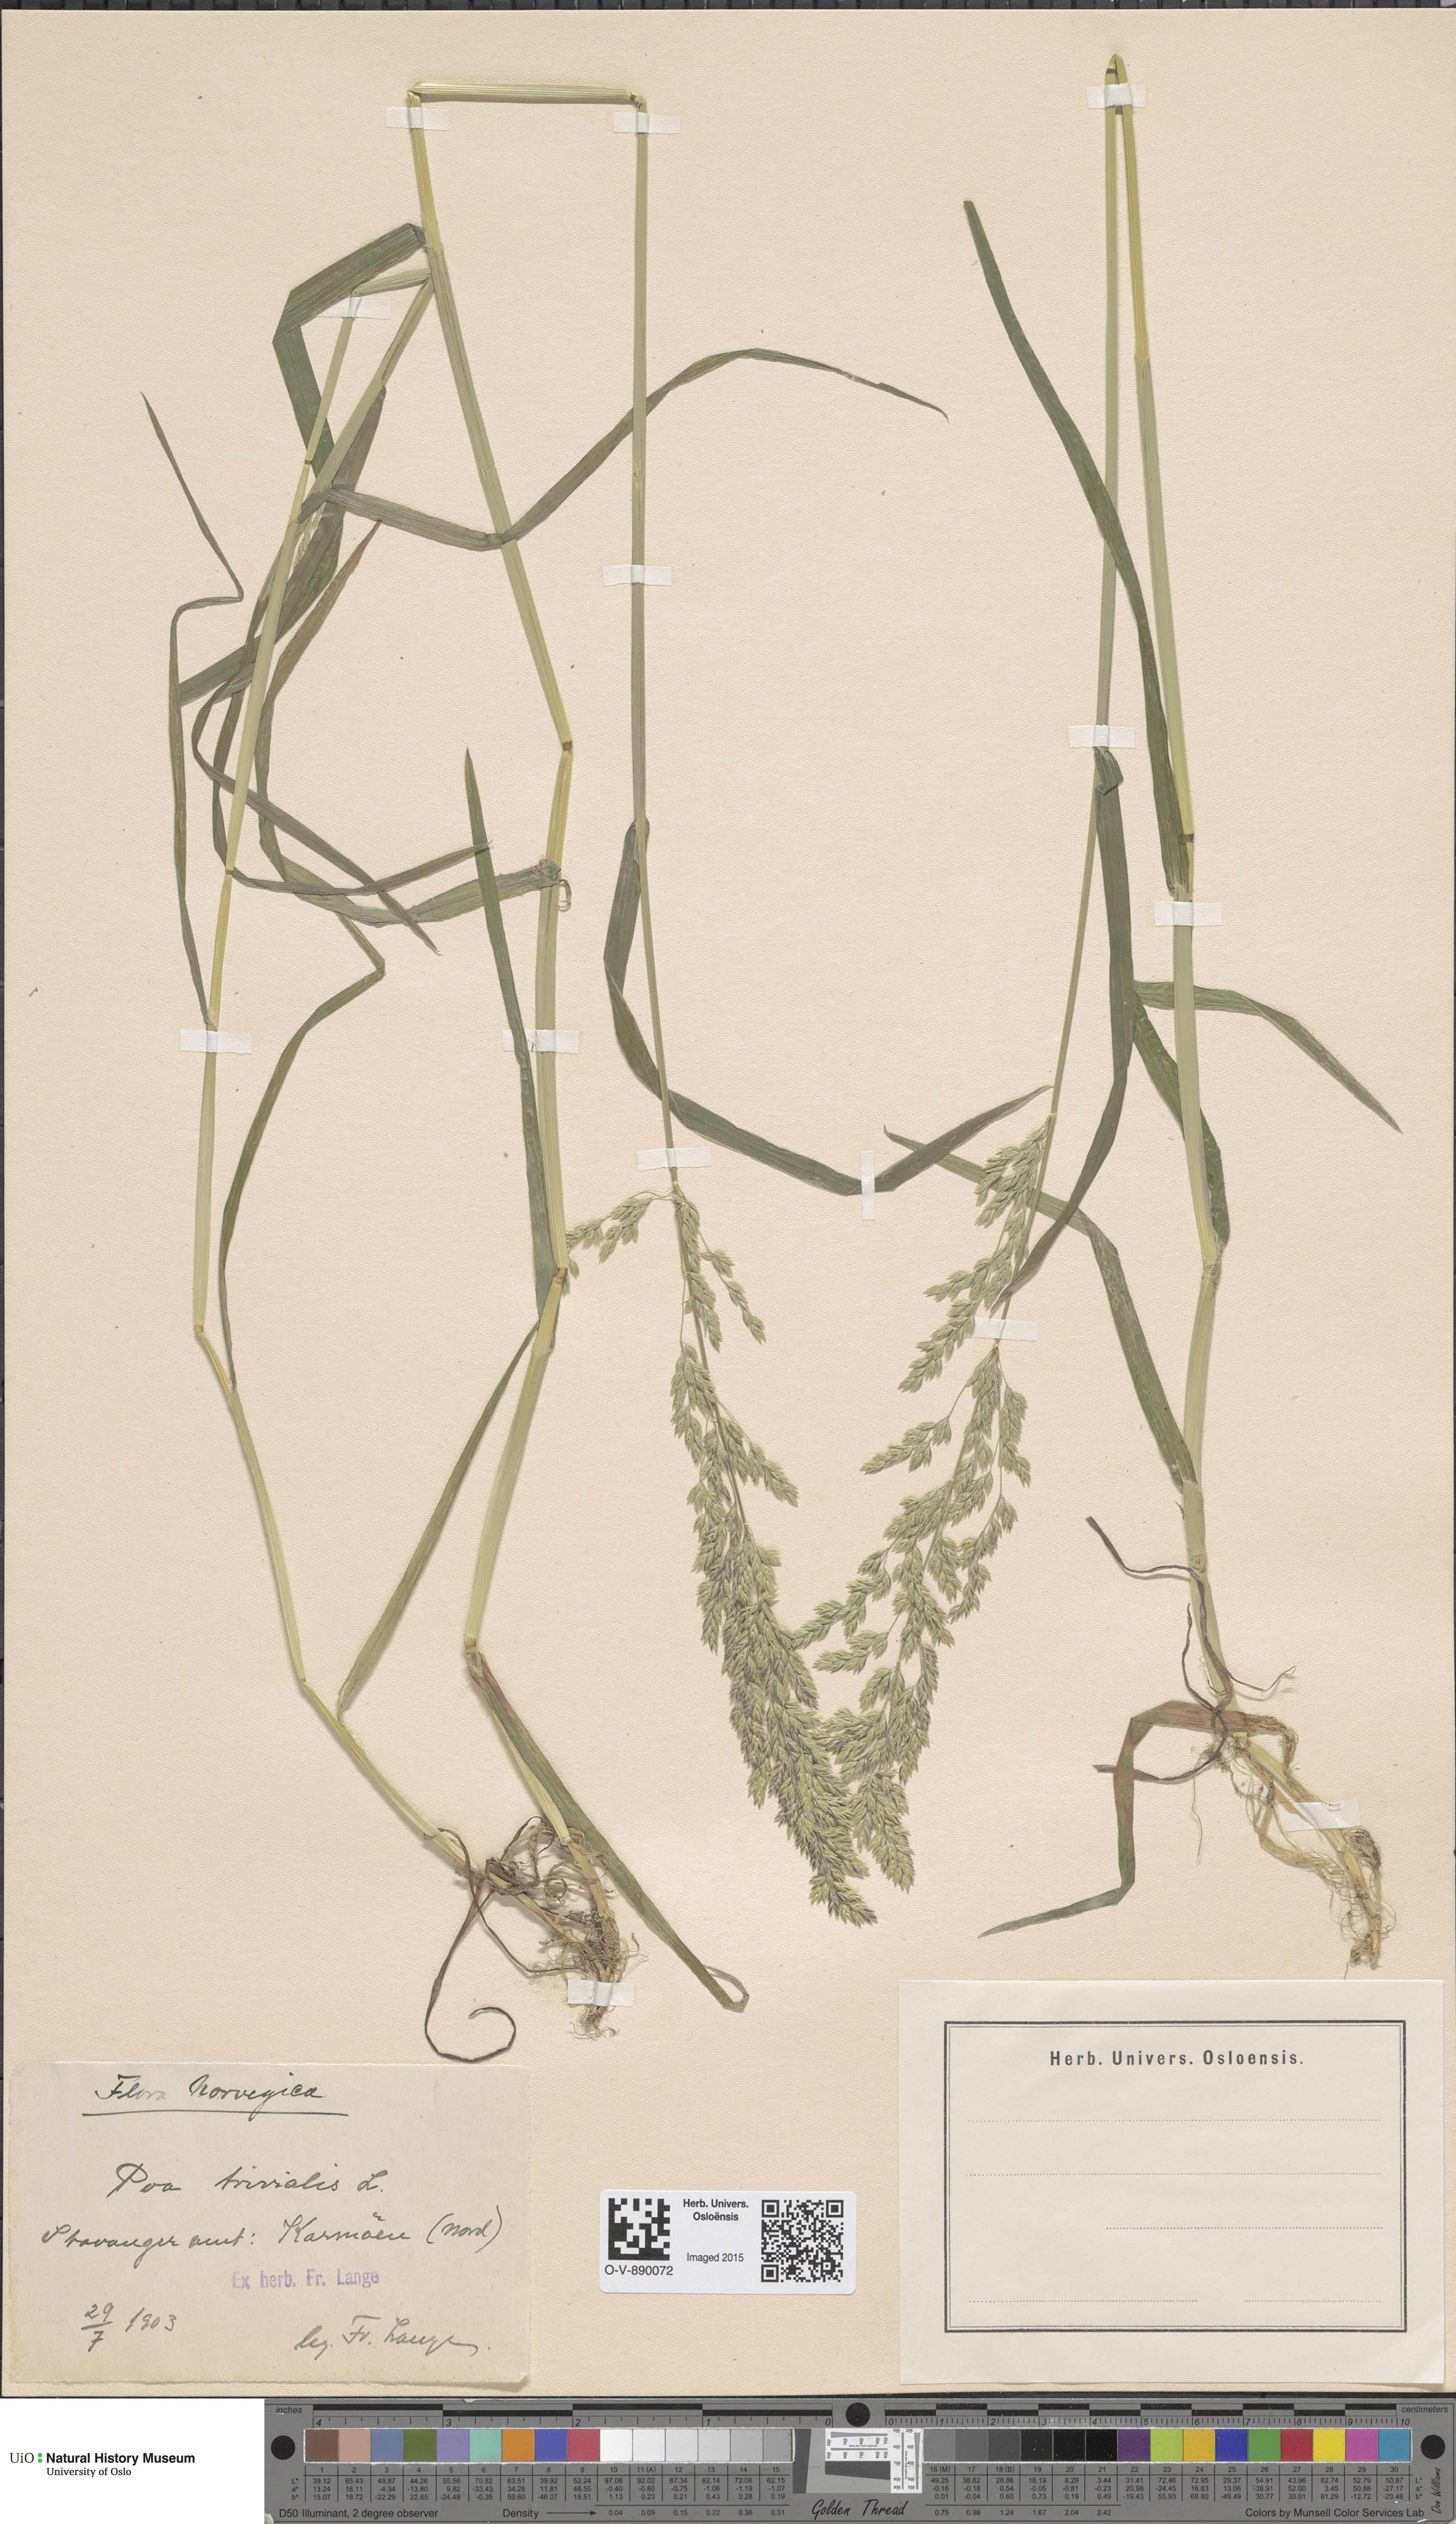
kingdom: Plantae
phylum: Tracheophyta
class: Liliopsida
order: Poales
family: Poaceae
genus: Poa
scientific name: Poa trivialis
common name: Rough bluegrass
